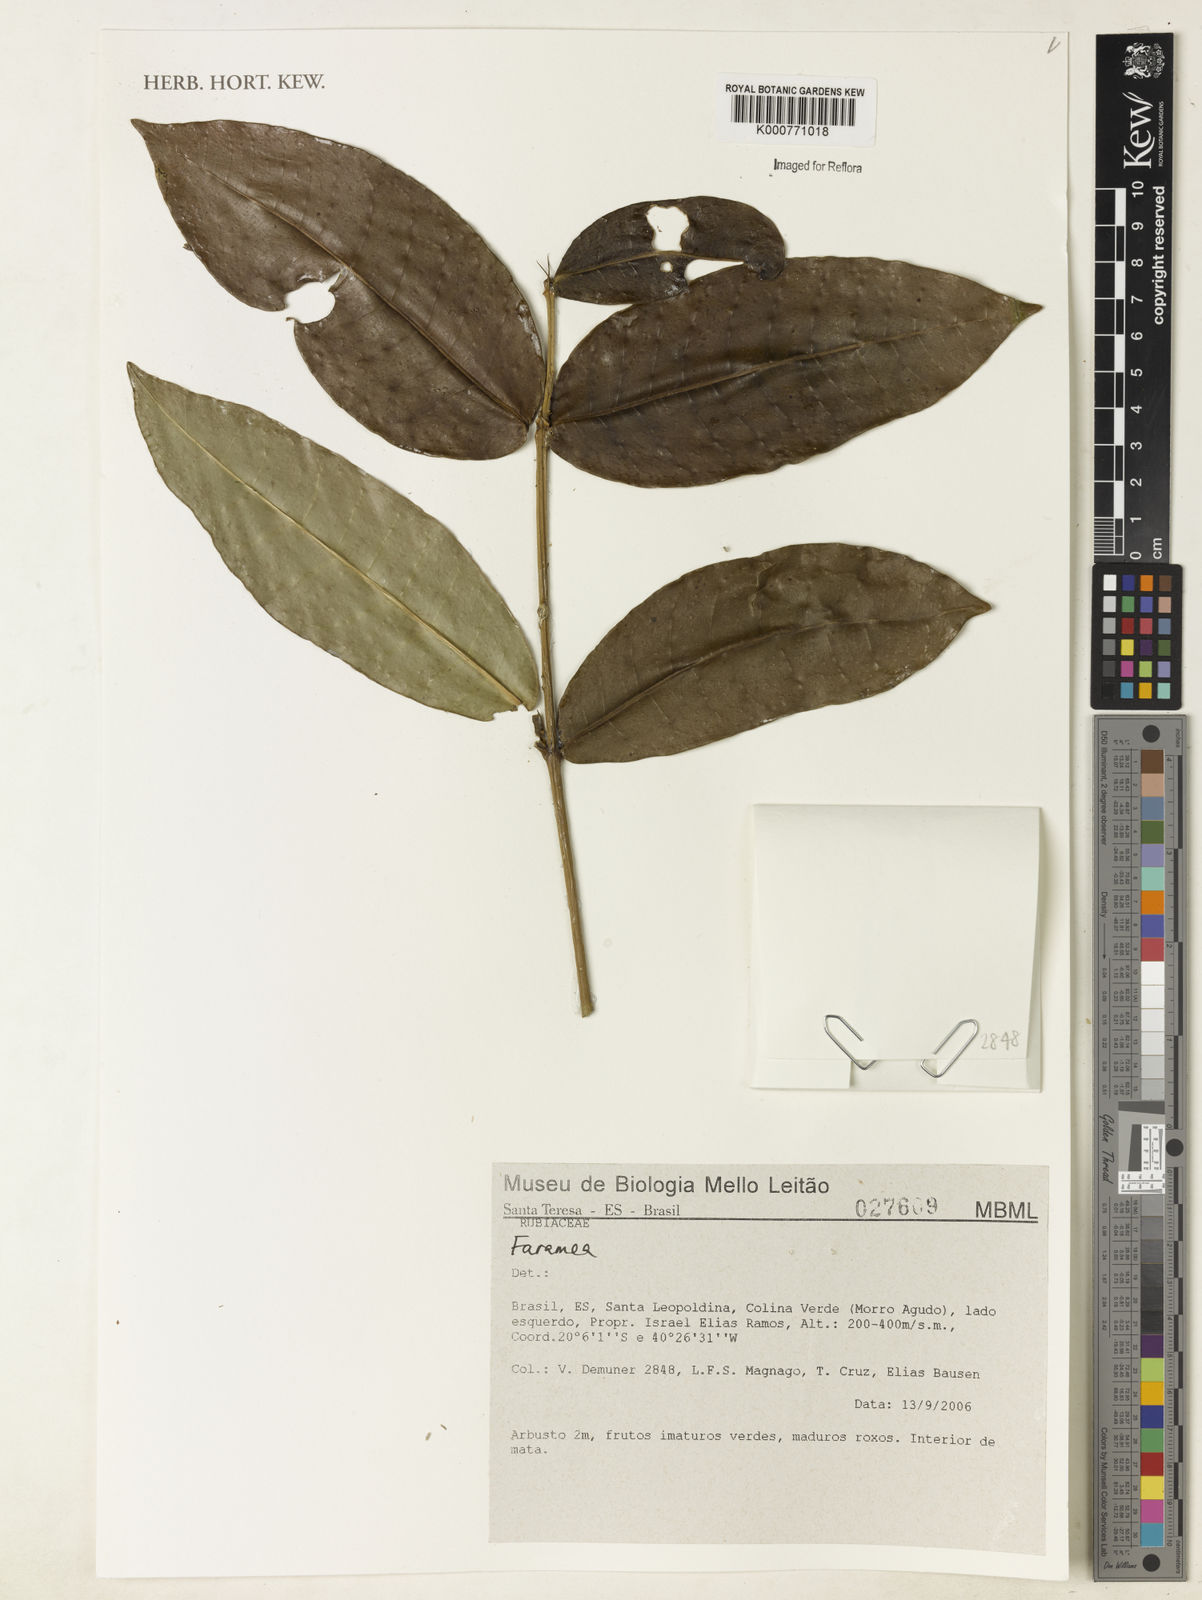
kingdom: Plantae
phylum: Tracheophyta
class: Magnoliopsida
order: Gentianales
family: Rubiaceae
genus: Faramea
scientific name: Faramea
